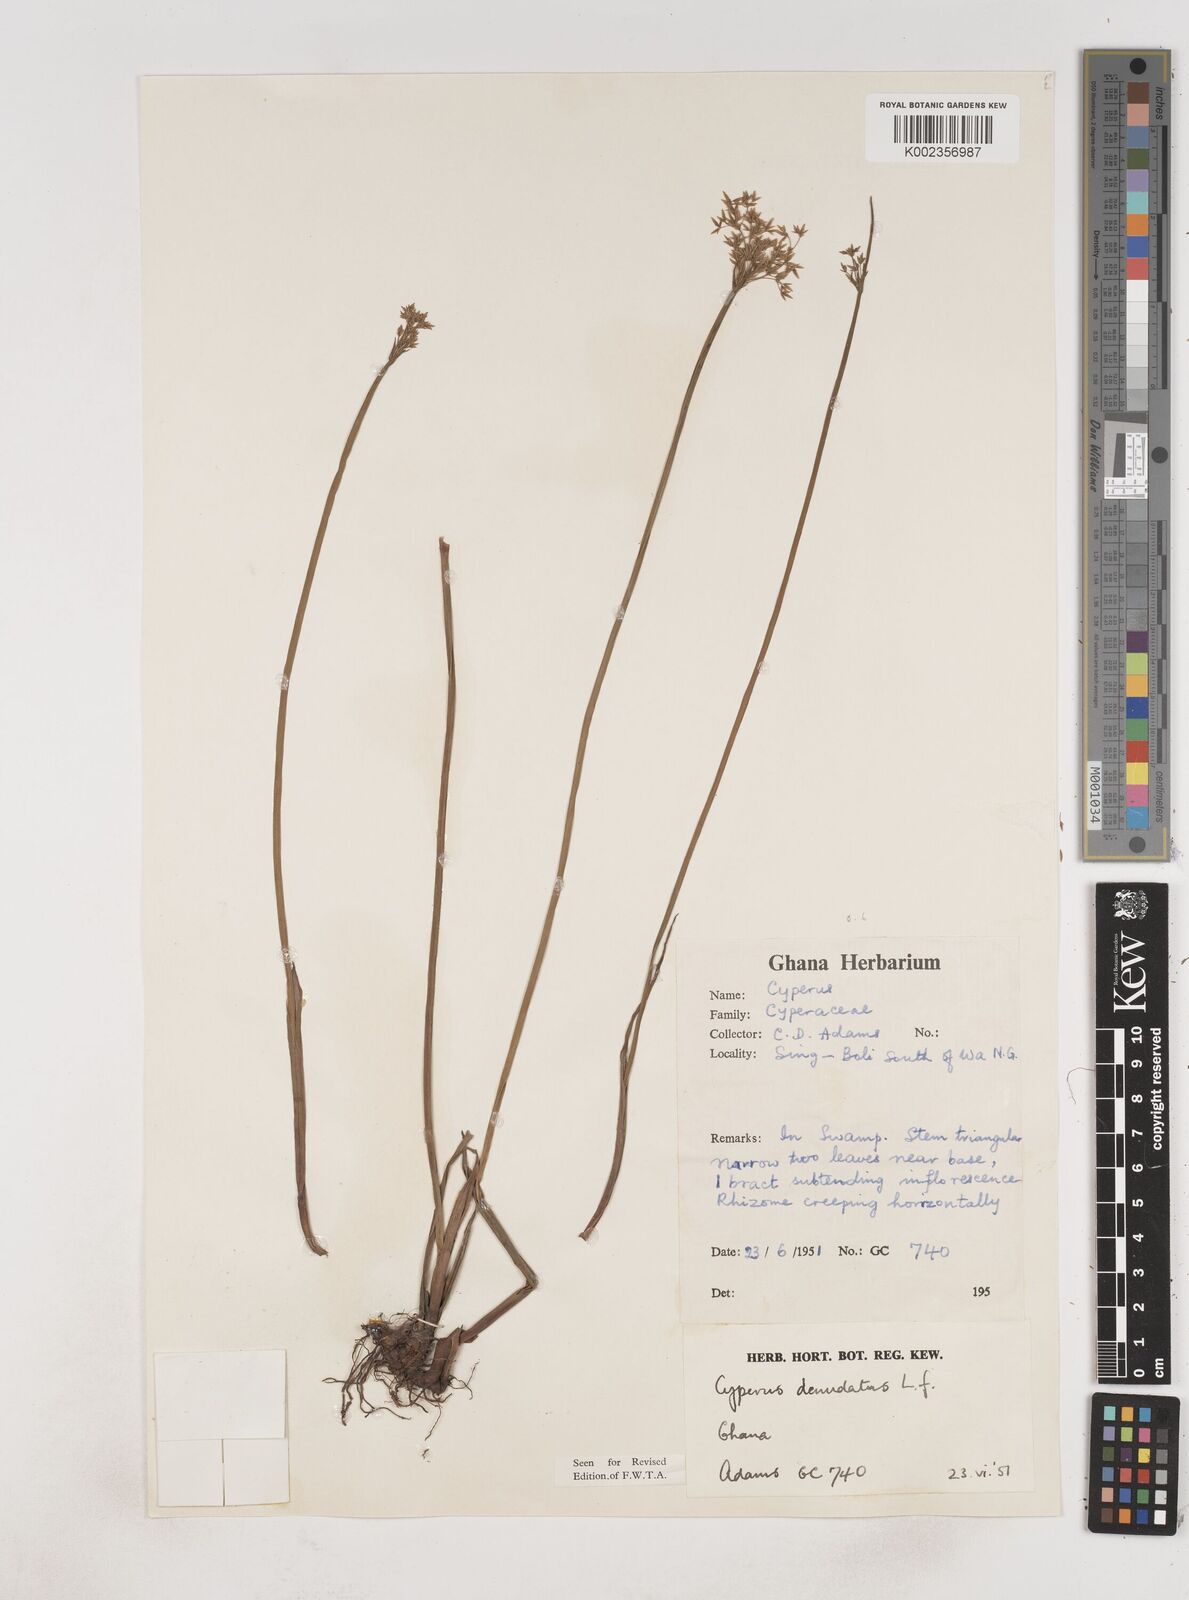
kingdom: Plantae
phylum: Tracheophyta
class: Liliopsida
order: Poales
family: Cyperaceae
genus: Cyperus
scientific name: Cyperus denudatus
